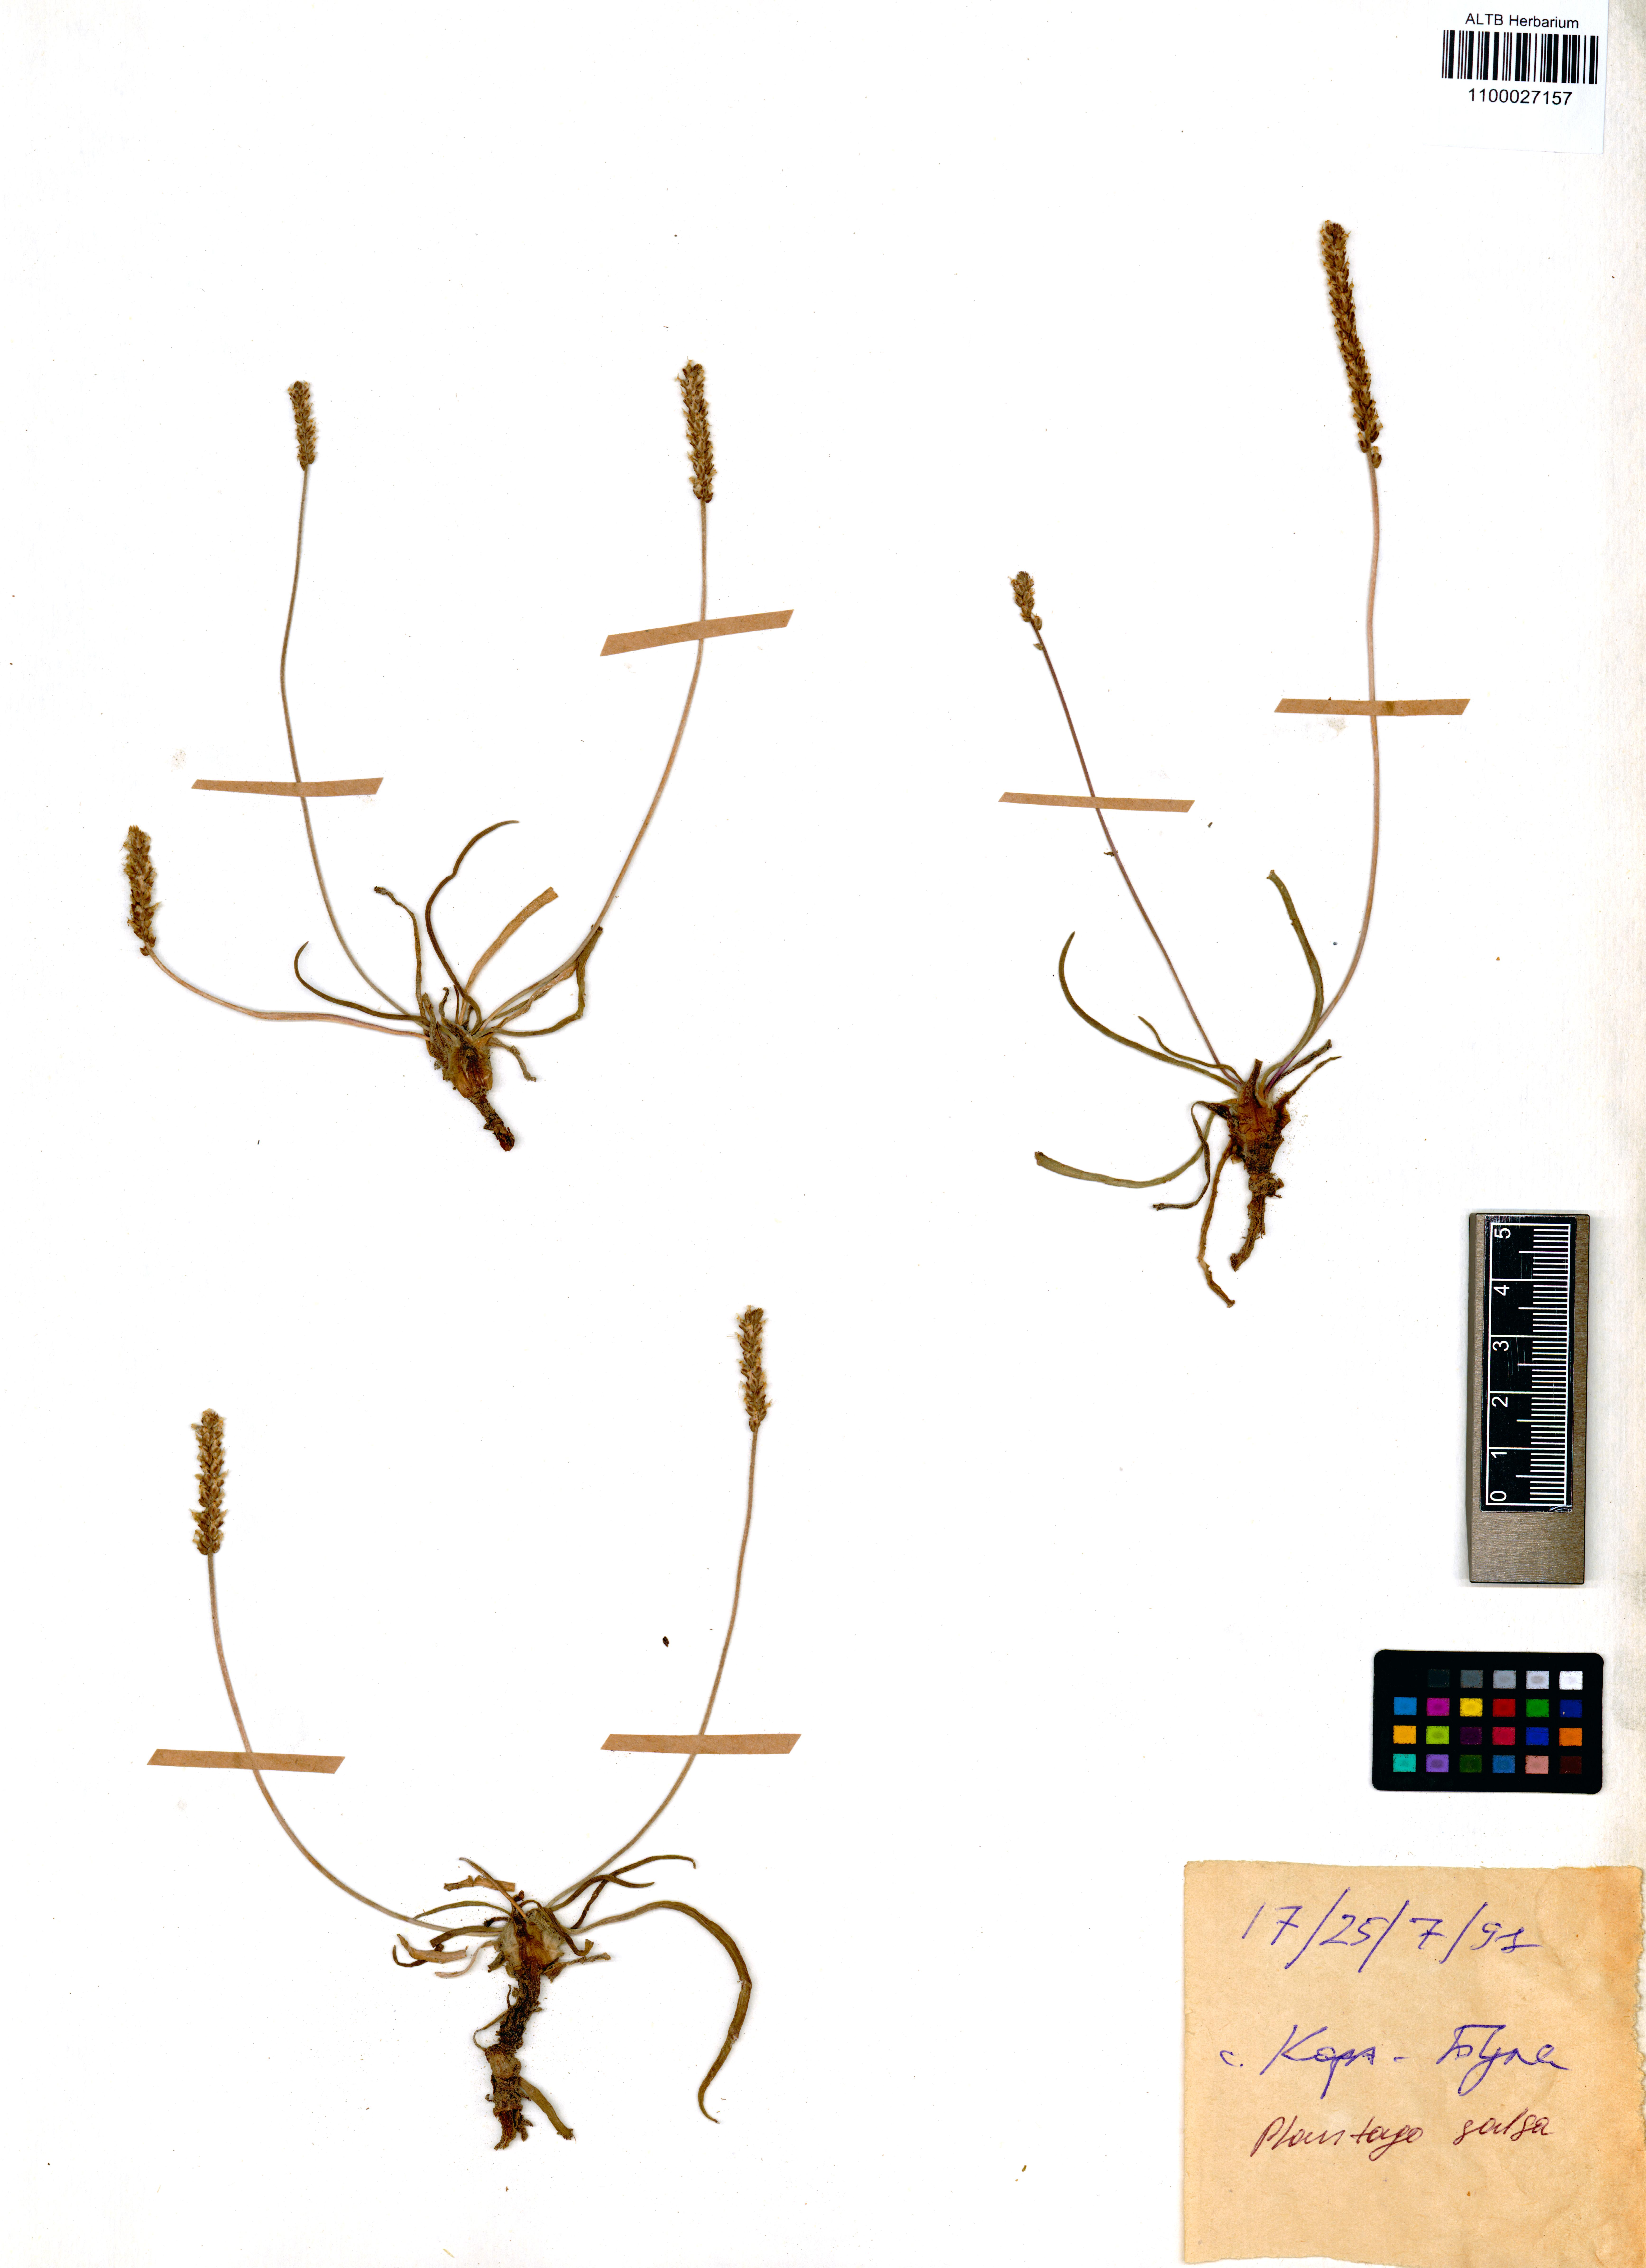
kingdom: Plantae
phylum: Tracheophyta
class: Magnoliopsida
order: Lamiales
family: Plantaginaceae
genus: Plantago
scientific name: Plantago salsa
